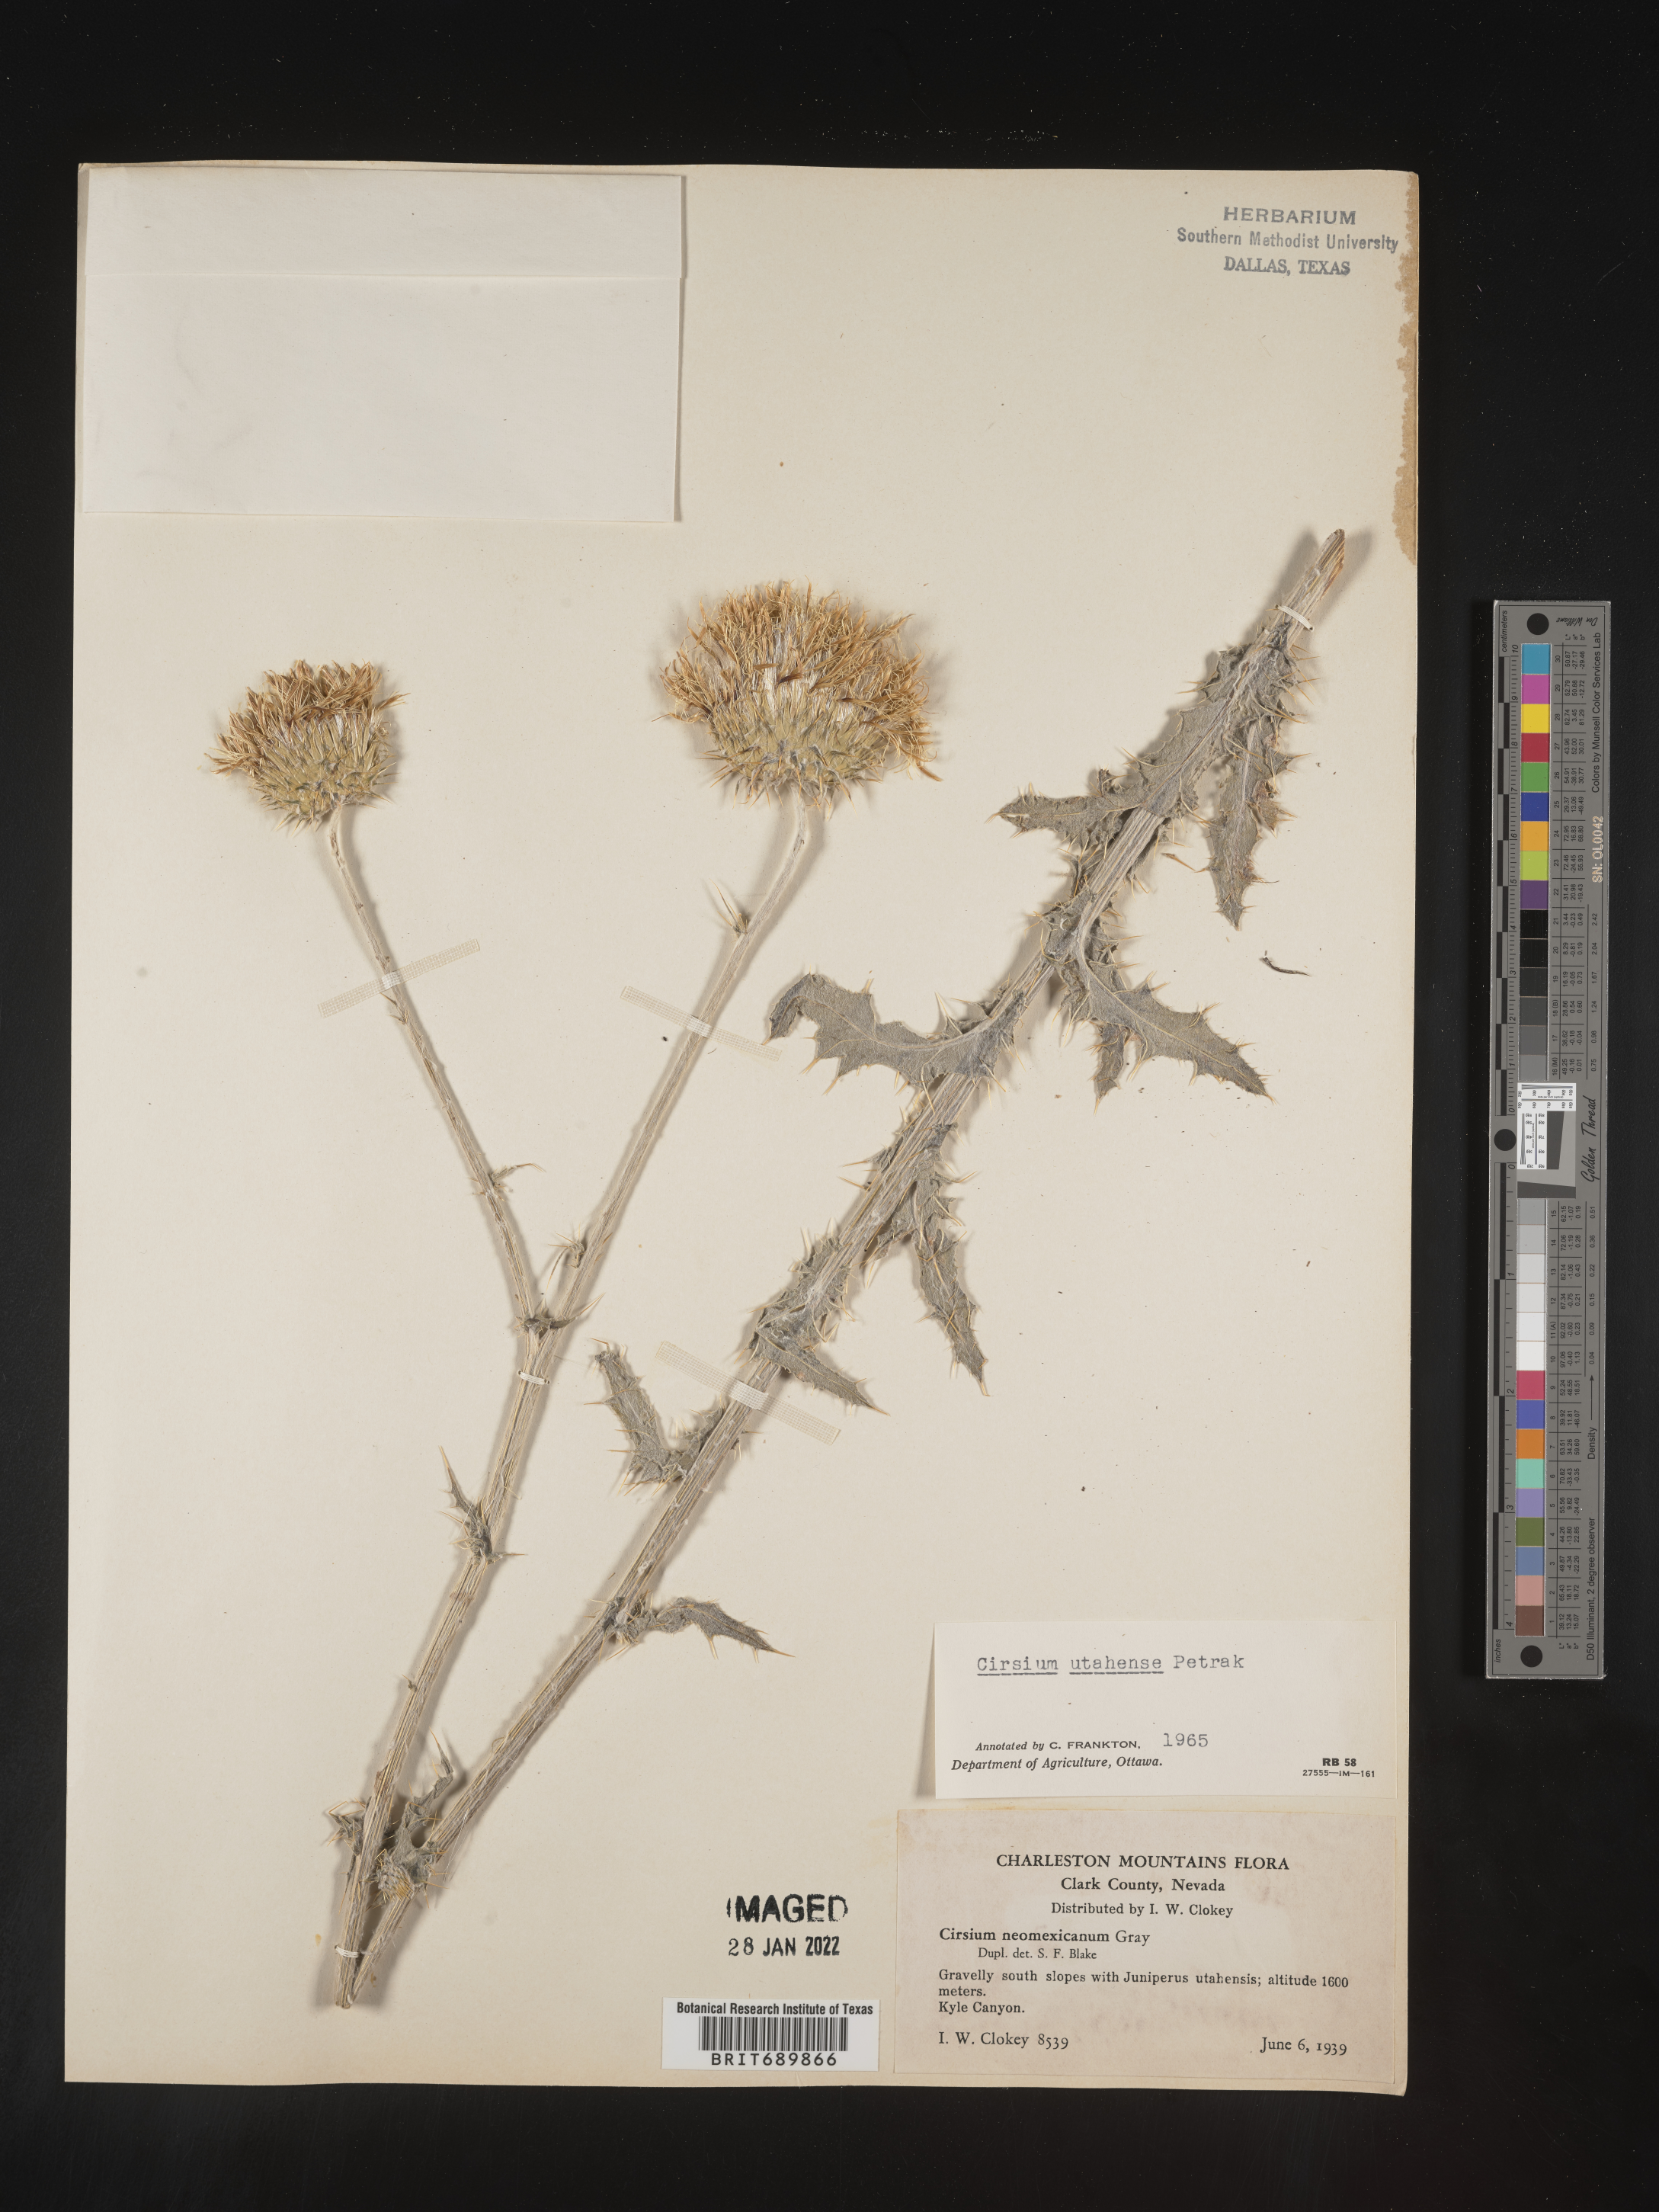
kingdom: Plantae
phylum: Tracheophyta
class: Magnoliopsida
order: Asterales
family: Asteraceae
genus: Cirsium
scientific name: Cirsium
